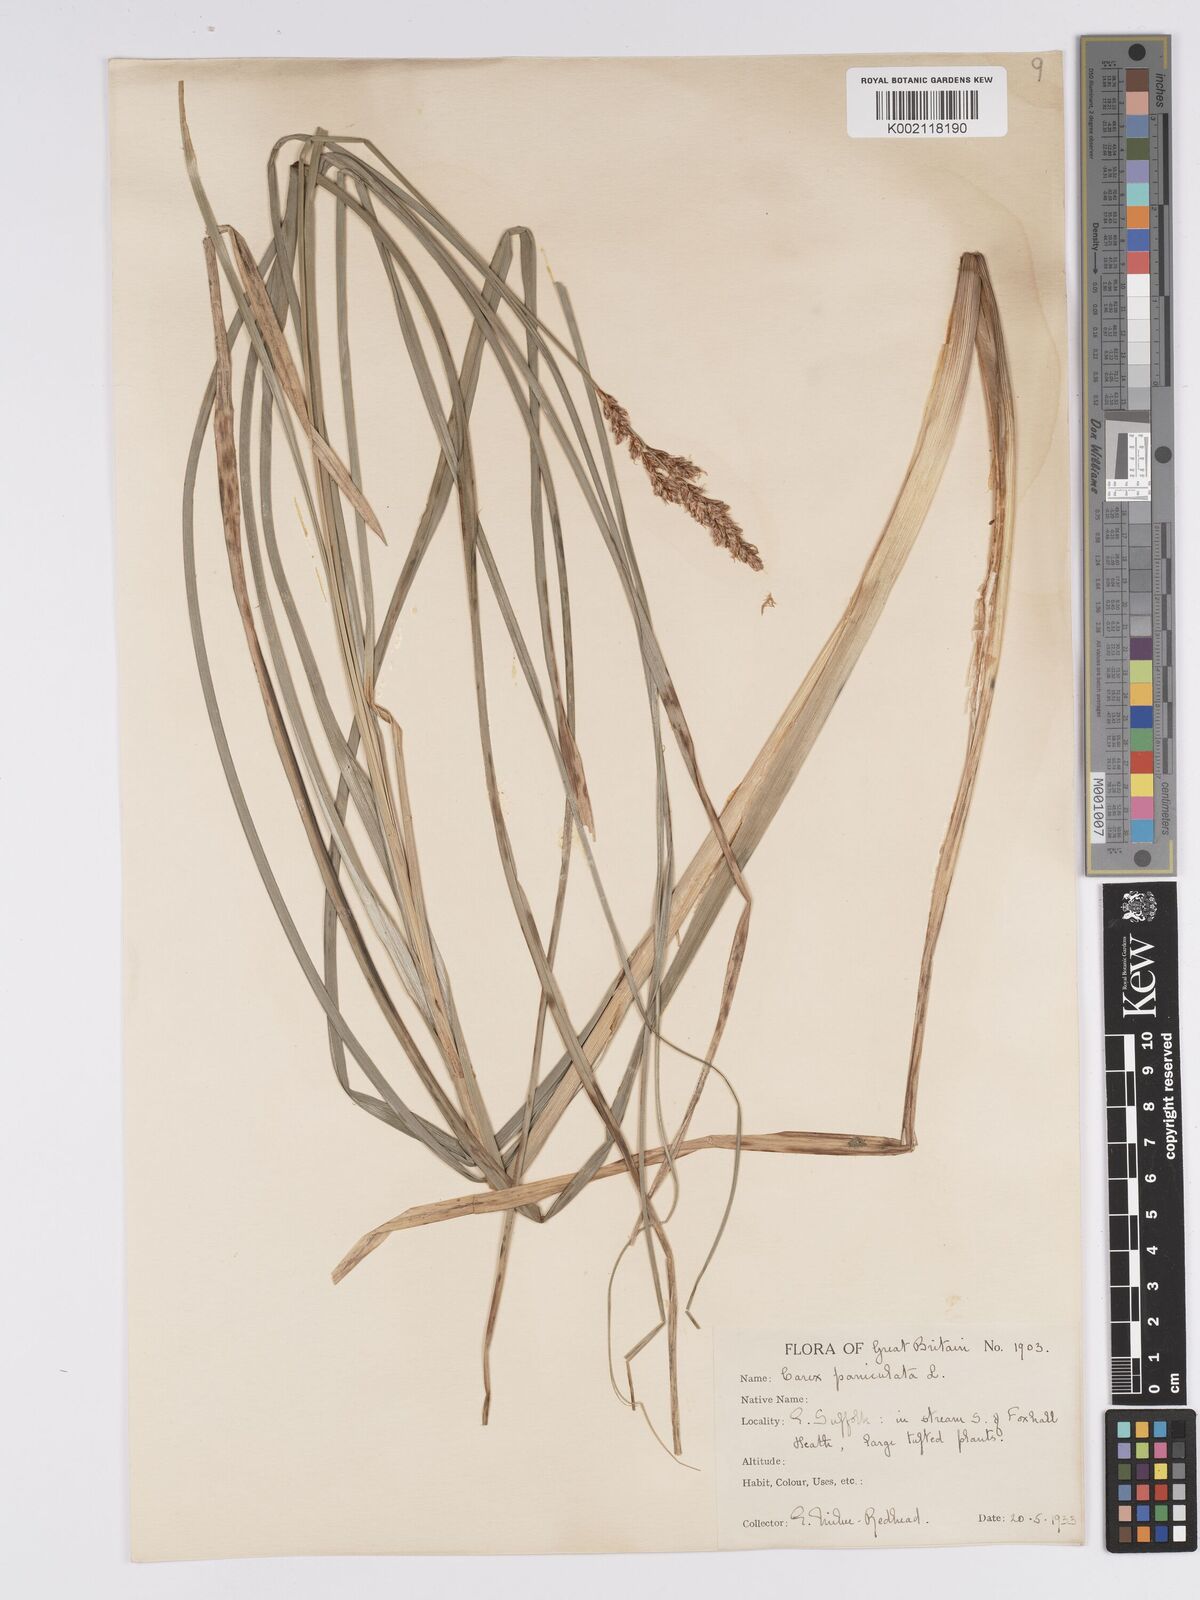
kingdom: Plantae
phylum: Tracheophyta
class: Liliopsida
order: Poales
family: Cyperaceae
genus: Carex
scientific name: Carex paniculata
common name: Greater tussock-sedge
